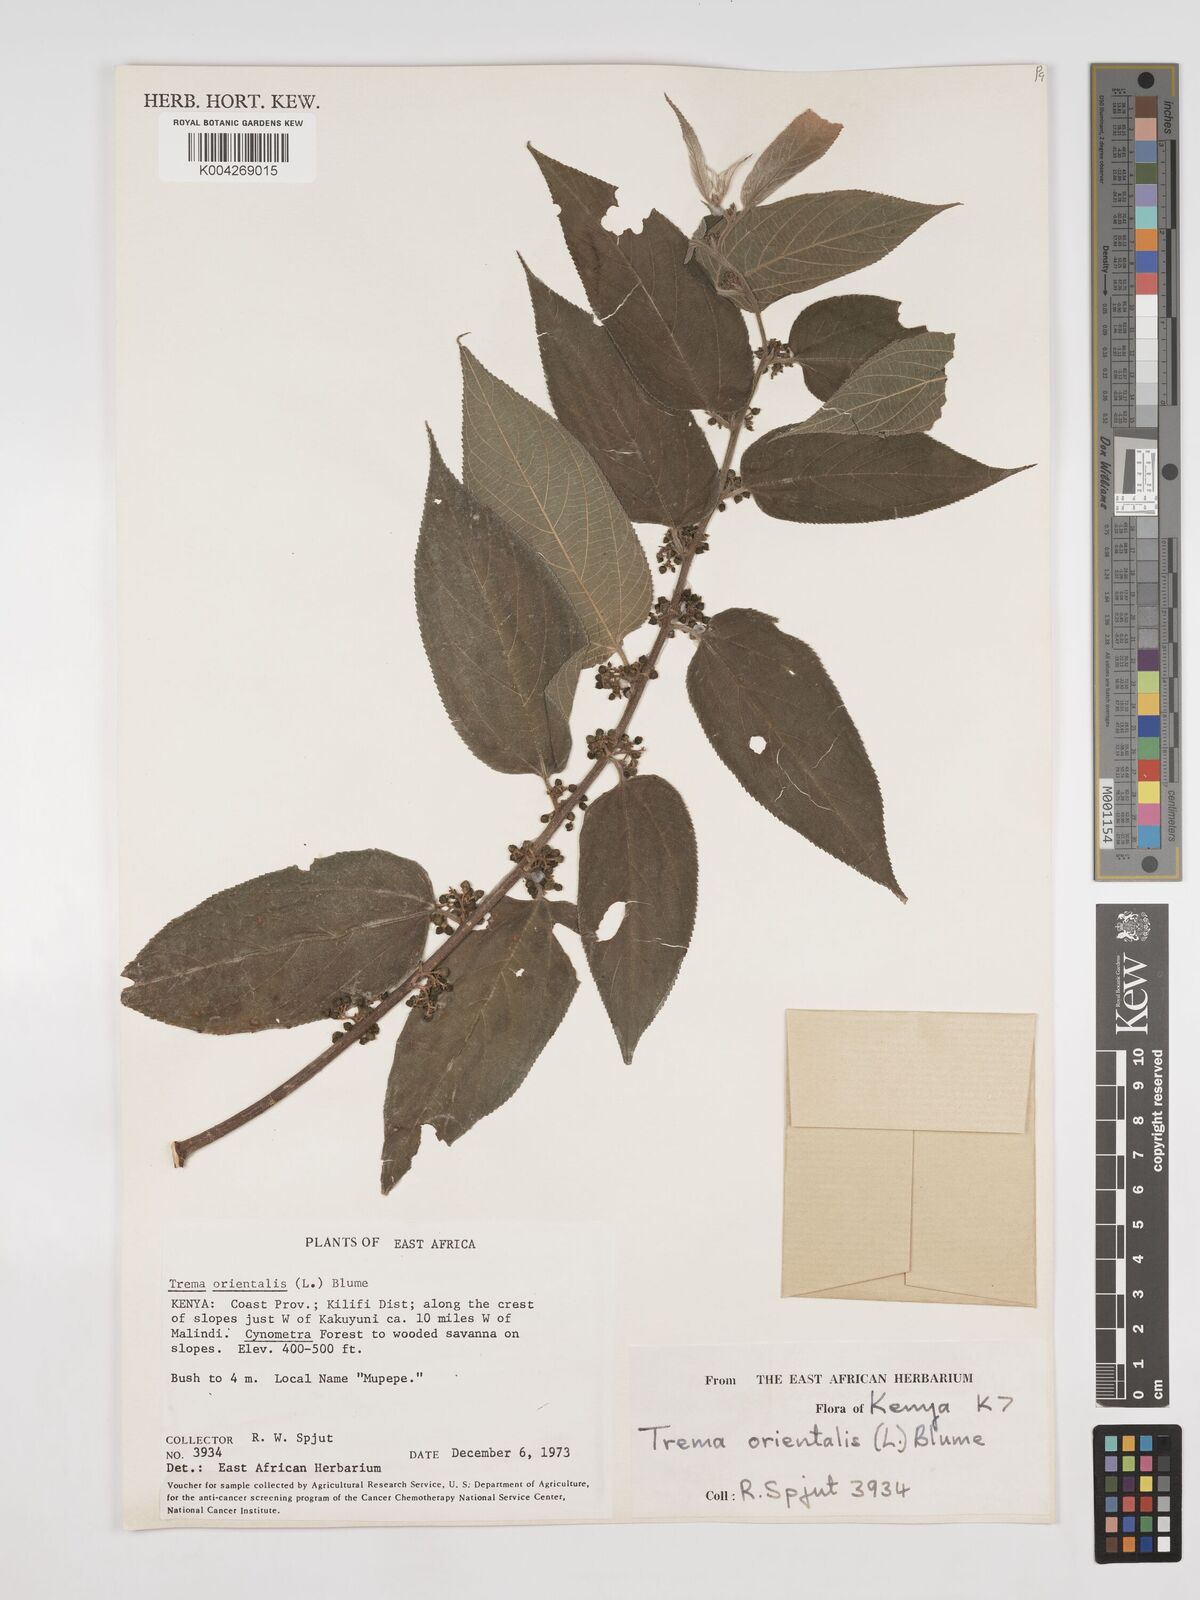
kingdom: Plantae
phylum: Tracheophyta
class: Magnoliopsida
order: Rosales
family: Cannabaceae
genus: Trema
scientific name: Trema orientale
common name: Indian charcoal tree
